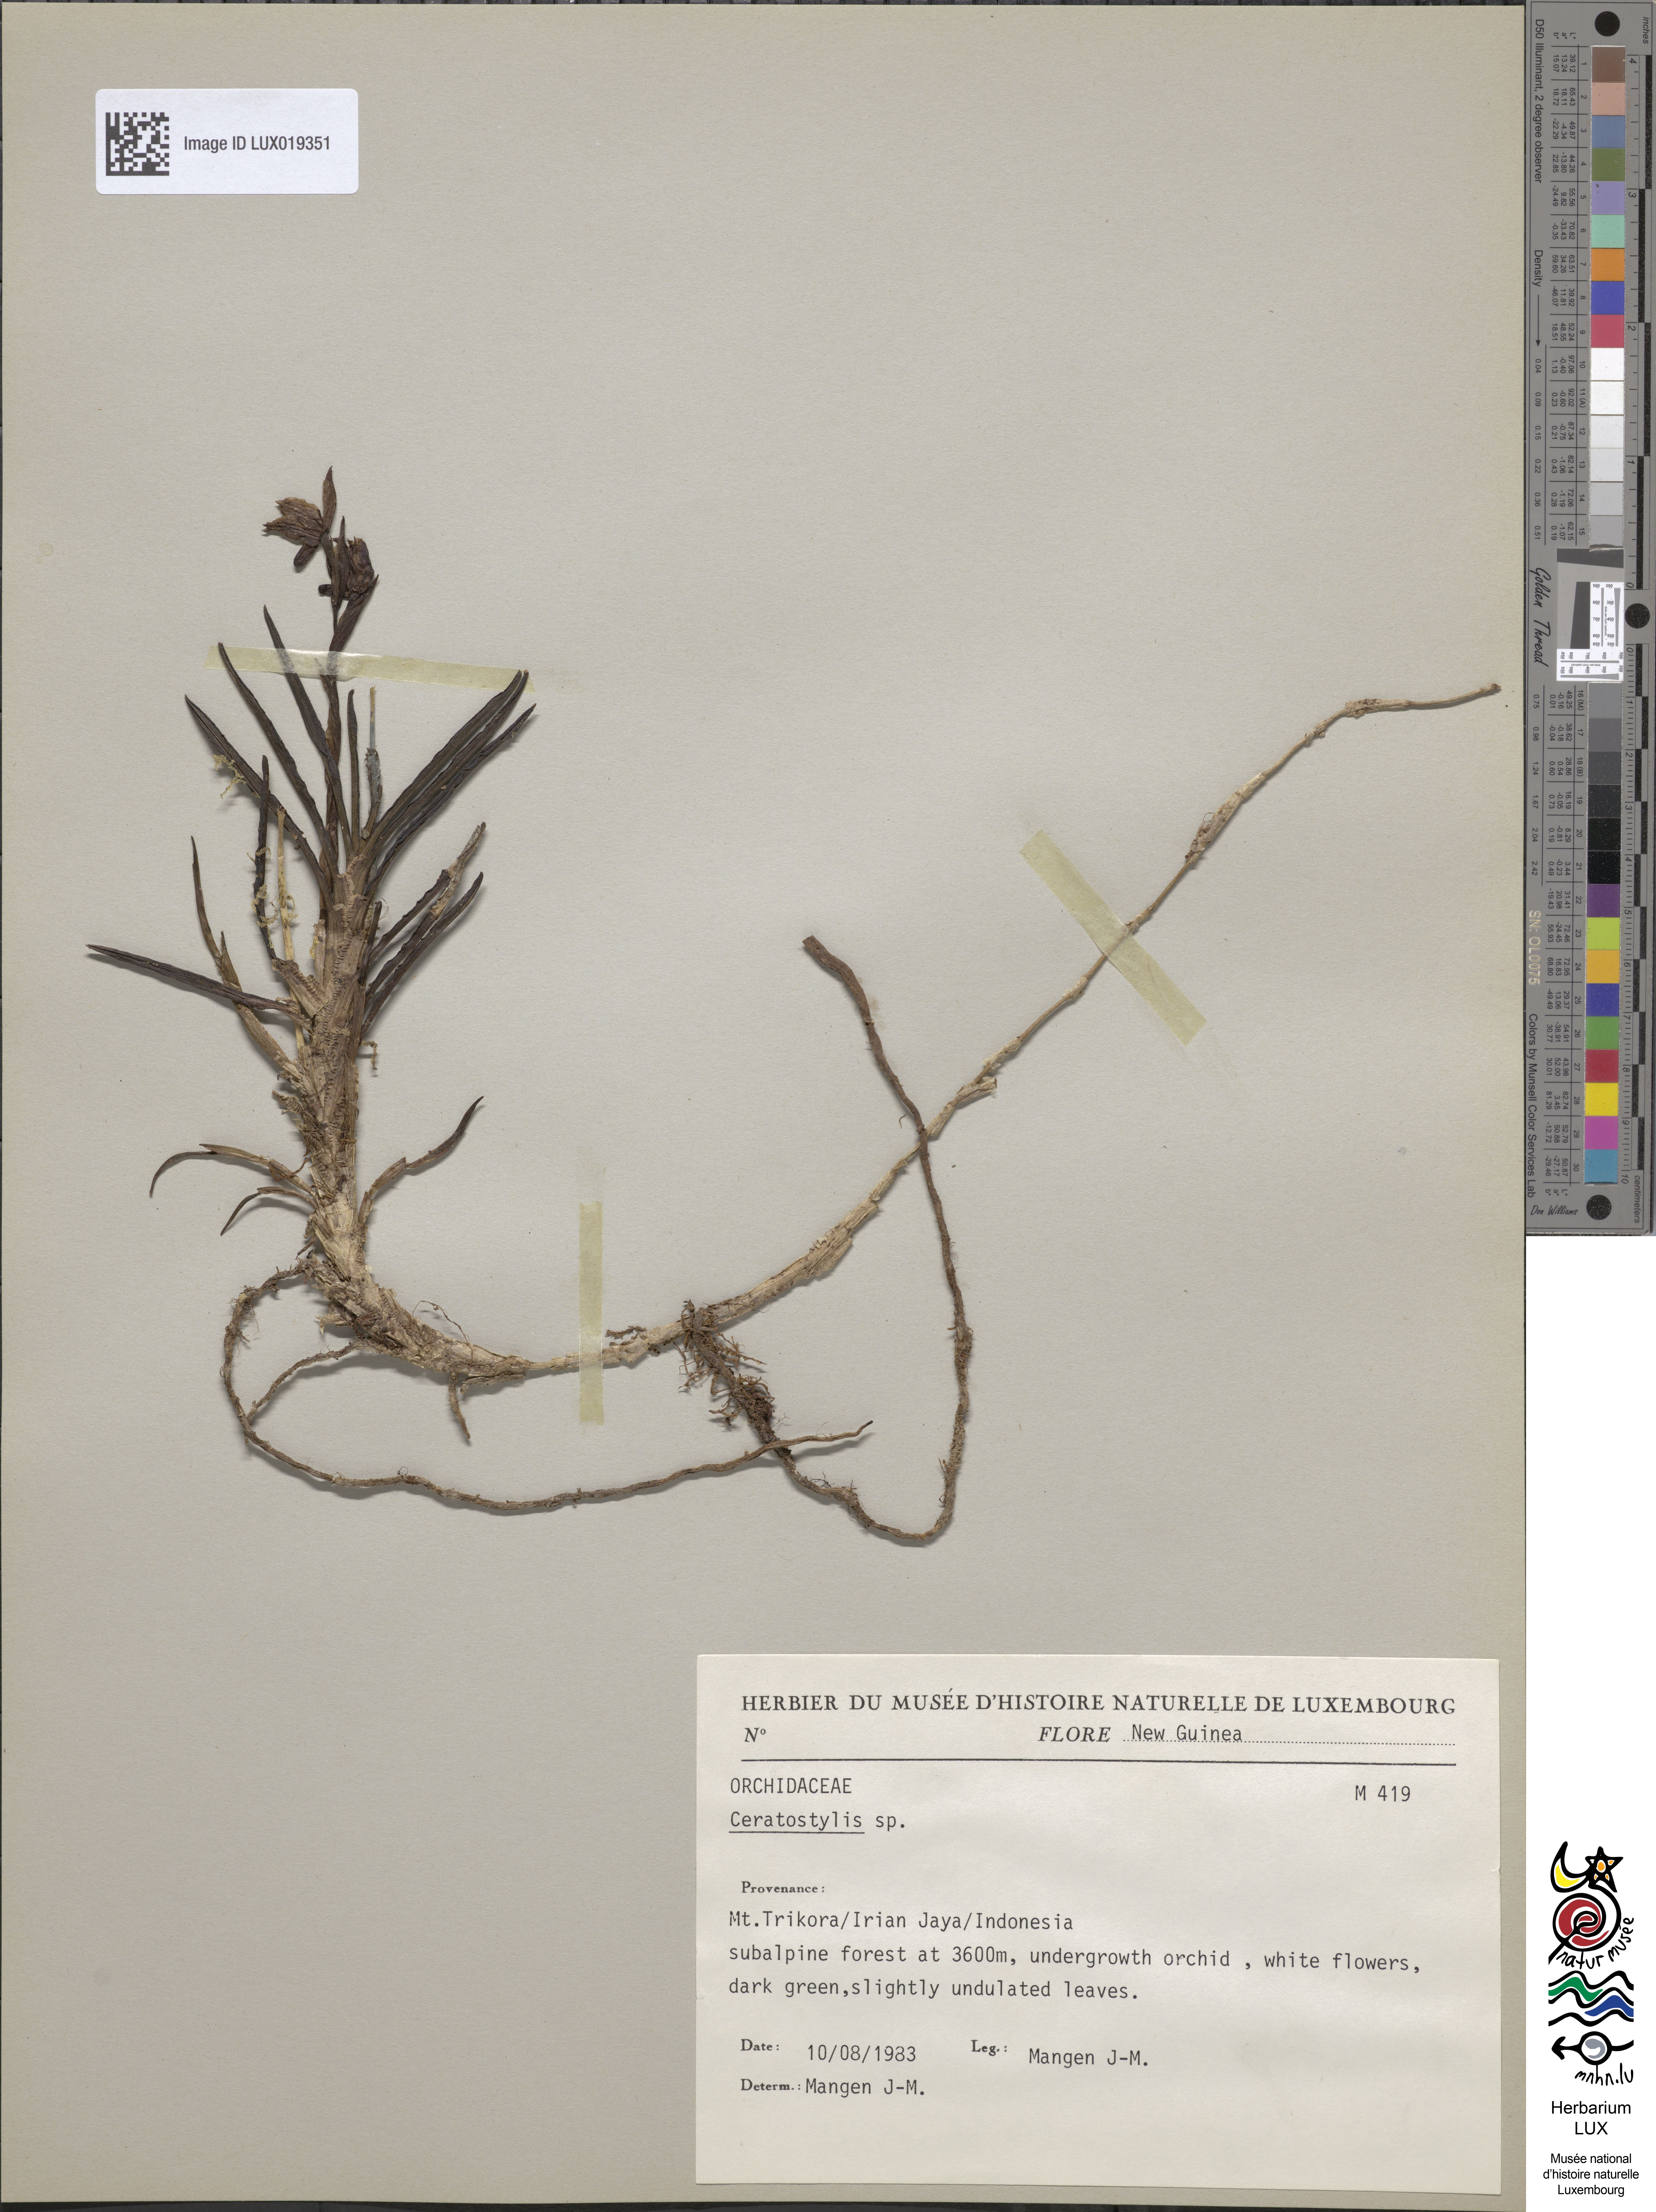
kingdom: Plantae
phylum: Tracheophyta
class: Liliopsida
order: Asparagales
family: Orchidaceae
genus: Ceratostylis
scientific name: Ceratostylis
